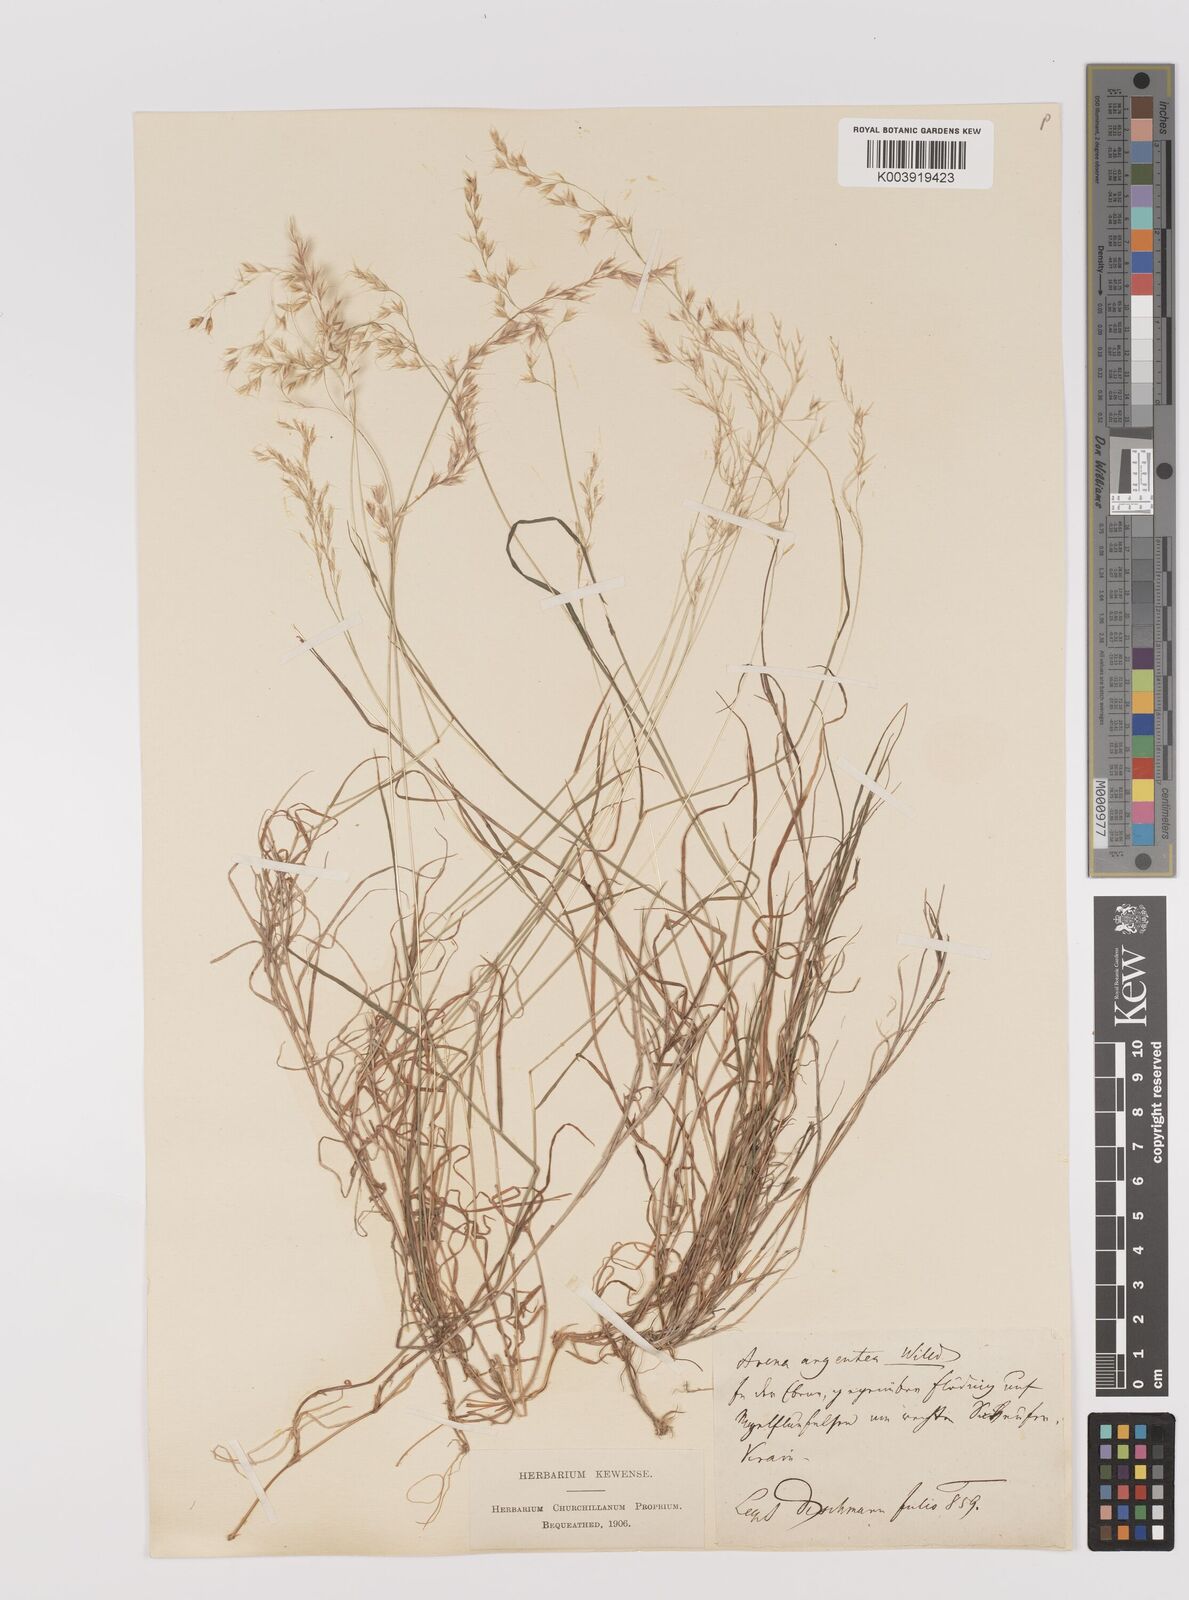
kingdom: Plantae
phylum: Tracheophyta
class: Liliopsida
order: Poales
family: Poaceae
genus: Trisetum
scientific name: Trisetum argenteum
